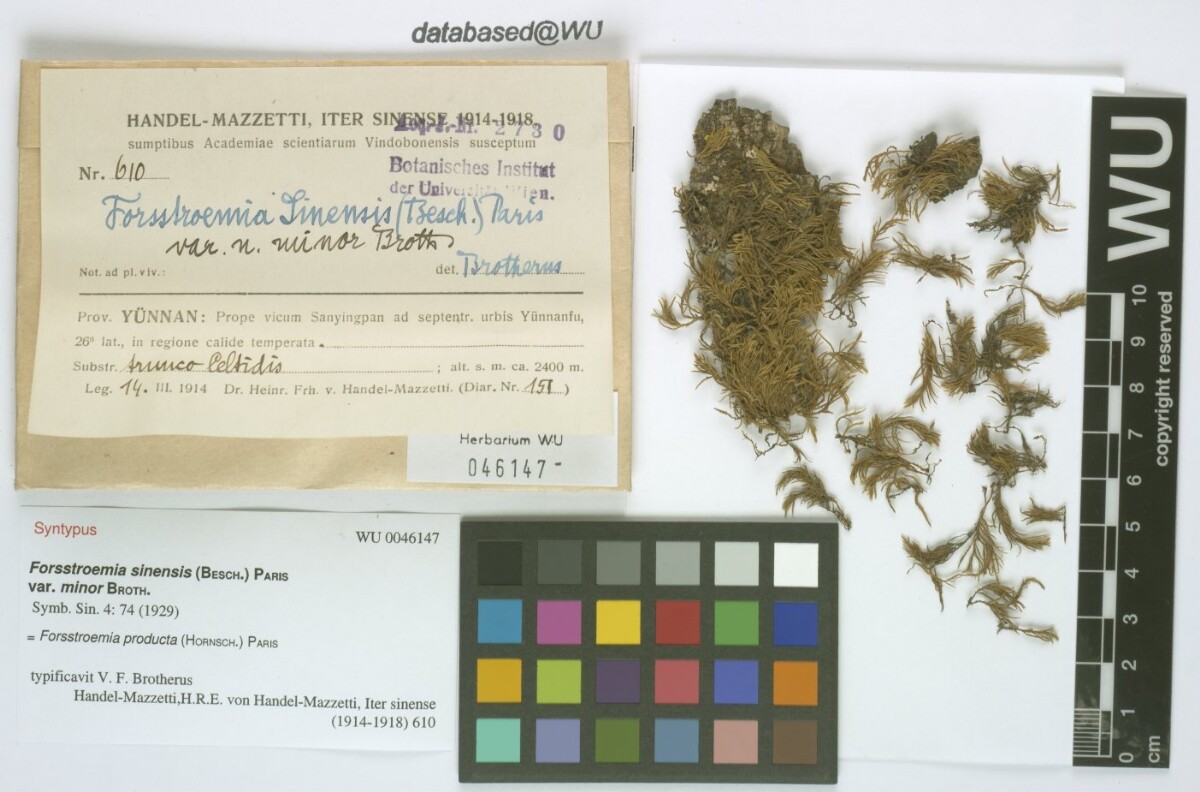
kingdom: Plantae
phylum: Bryophyta
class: Bryopsida
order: Hypnales
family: Neckeraceae
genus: Forsstroemia
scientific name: Forsstroemia producta
